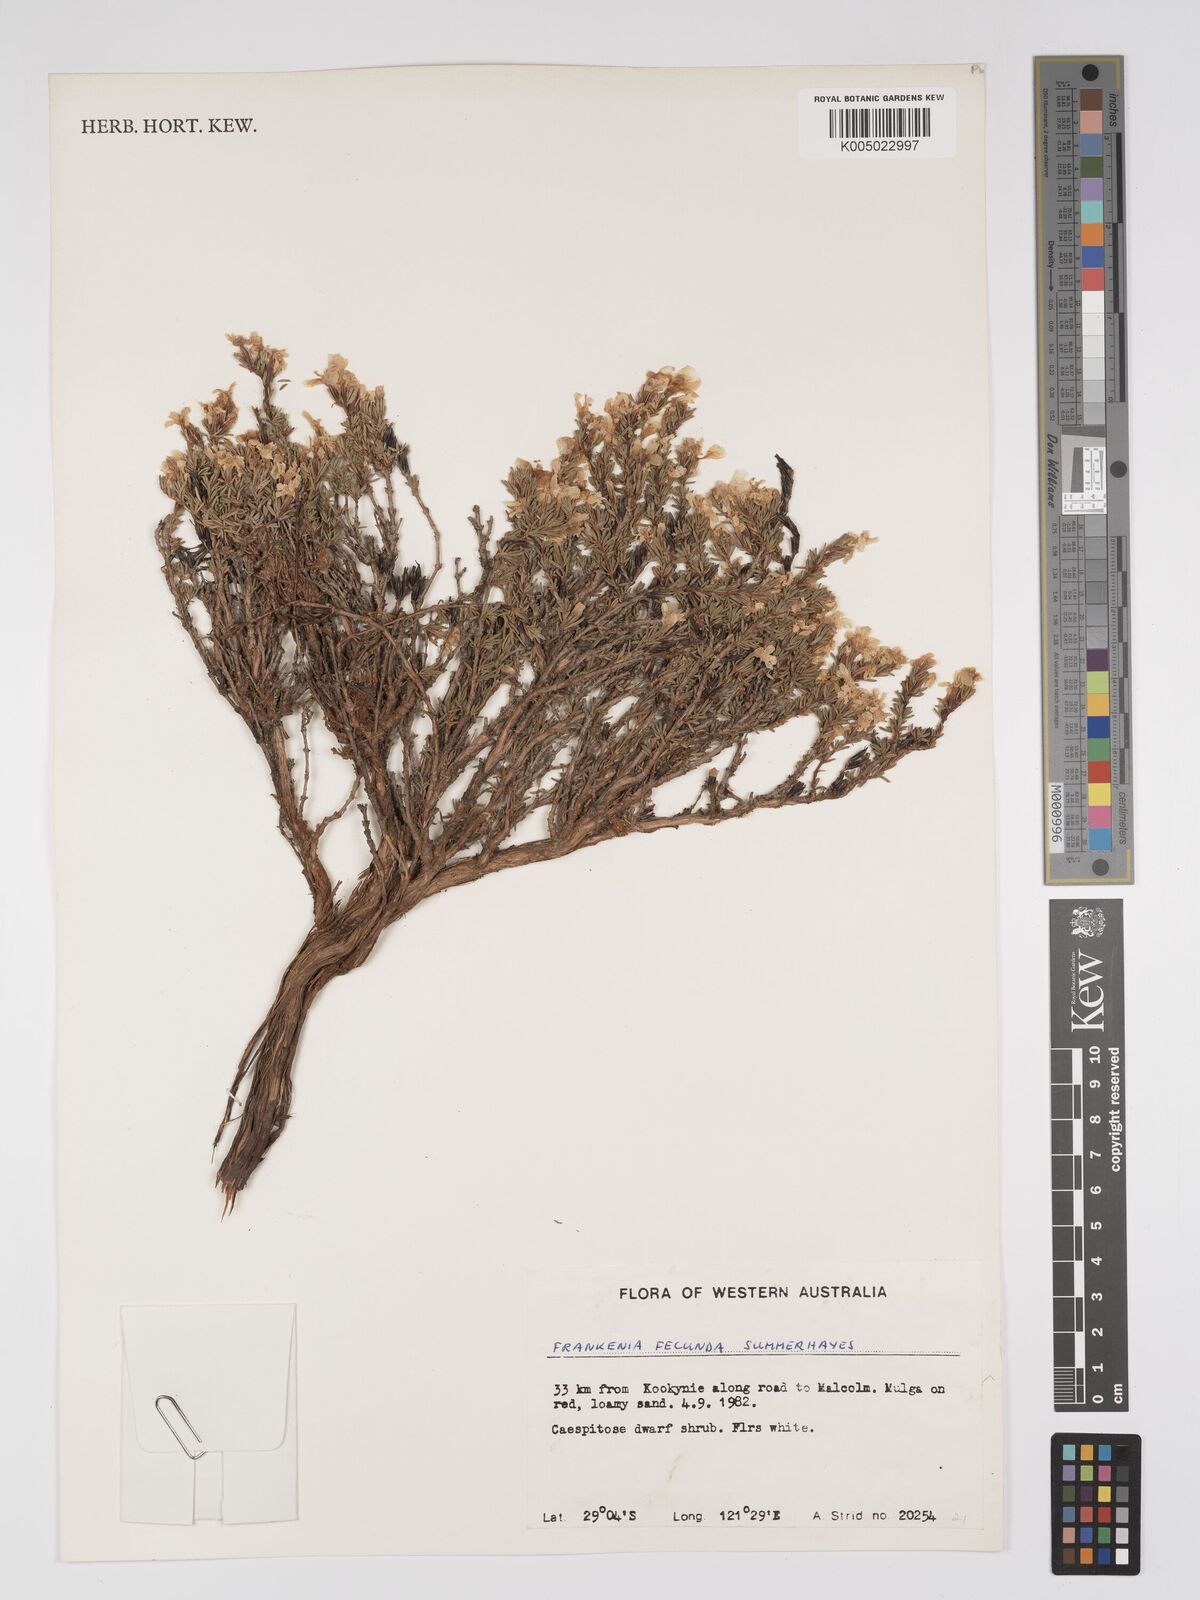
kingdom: Plantae
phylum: Tracheophyta
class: Magnoliopsida
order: Caryophyllales
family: Frankeniaceae
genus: Frankenia
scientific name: Frankenia fecunda
